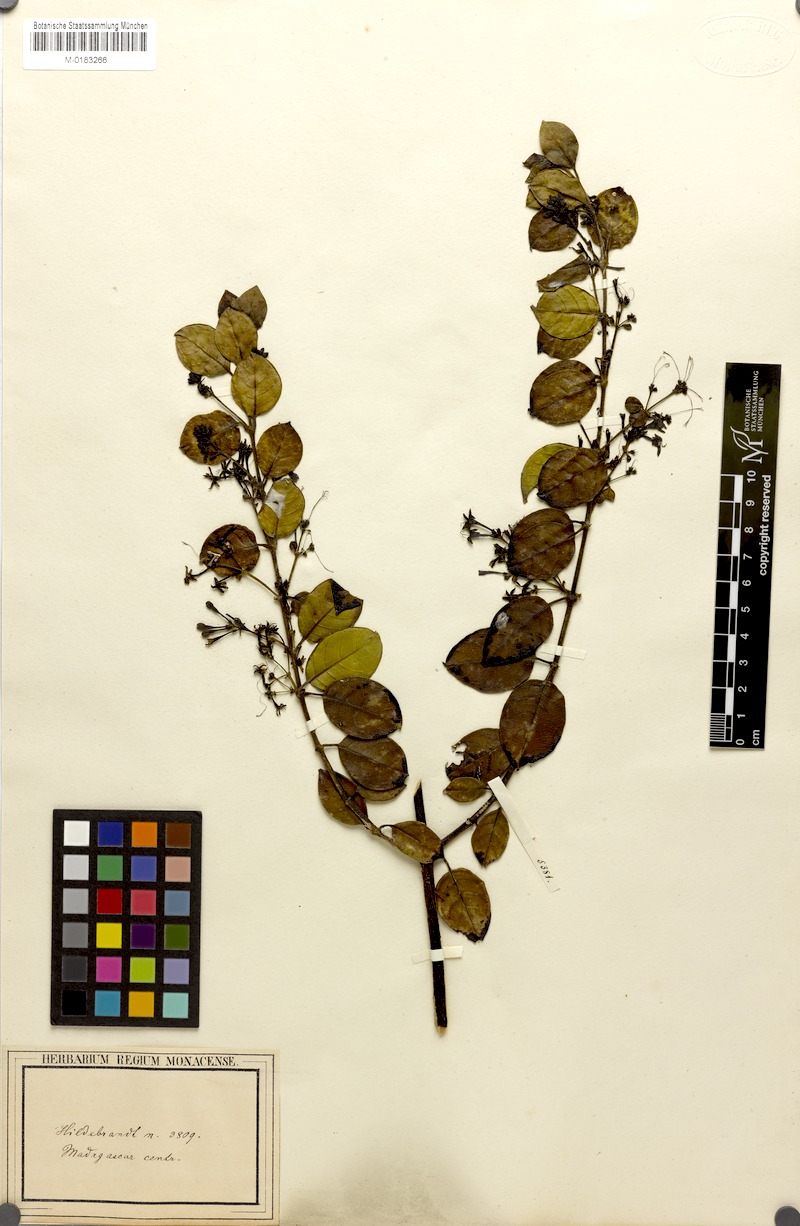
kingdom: Plantae
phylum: Tracheophyta
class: Magnoliopsida
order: Gentianales
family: Rubiaceae
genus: Danais
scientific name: Danais pubescens
